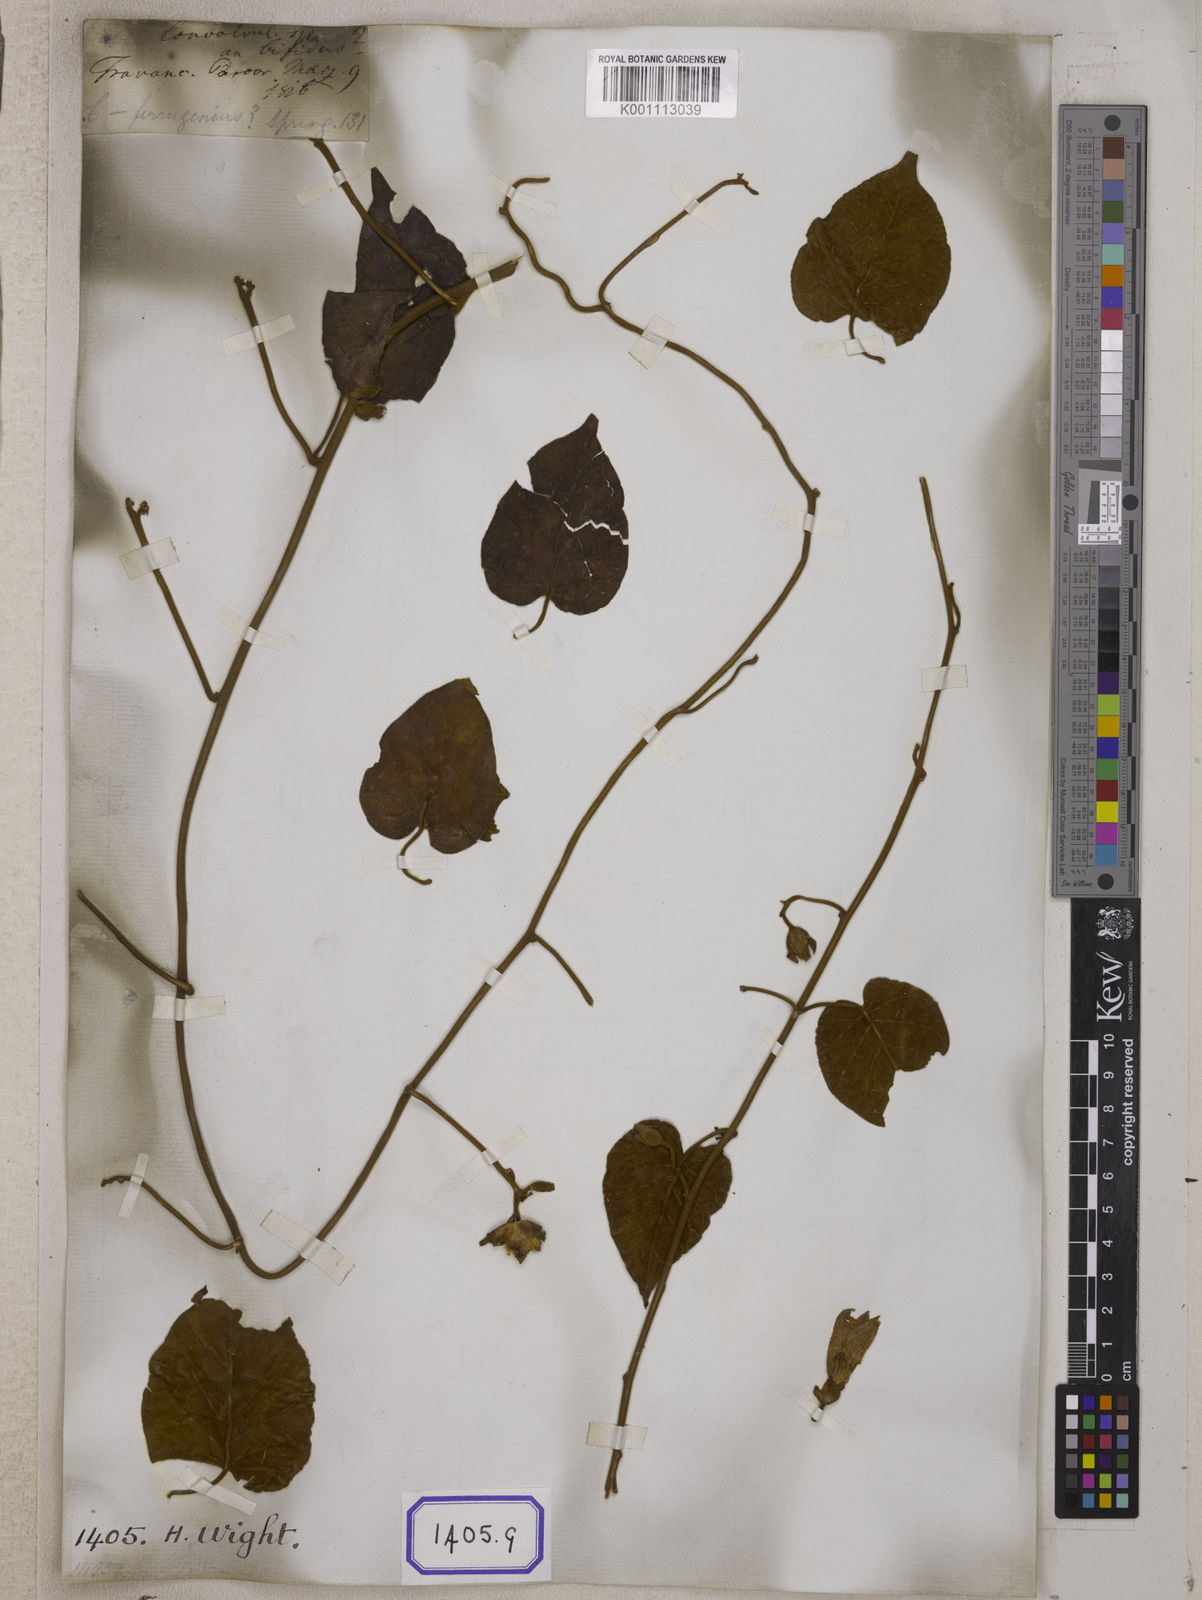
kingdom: Plantae
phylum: Tracheophyta
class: Magnoliopsida
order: Solanales
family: Convolvulaceae
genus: Bonamia
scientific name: Bonamia semidigyna
